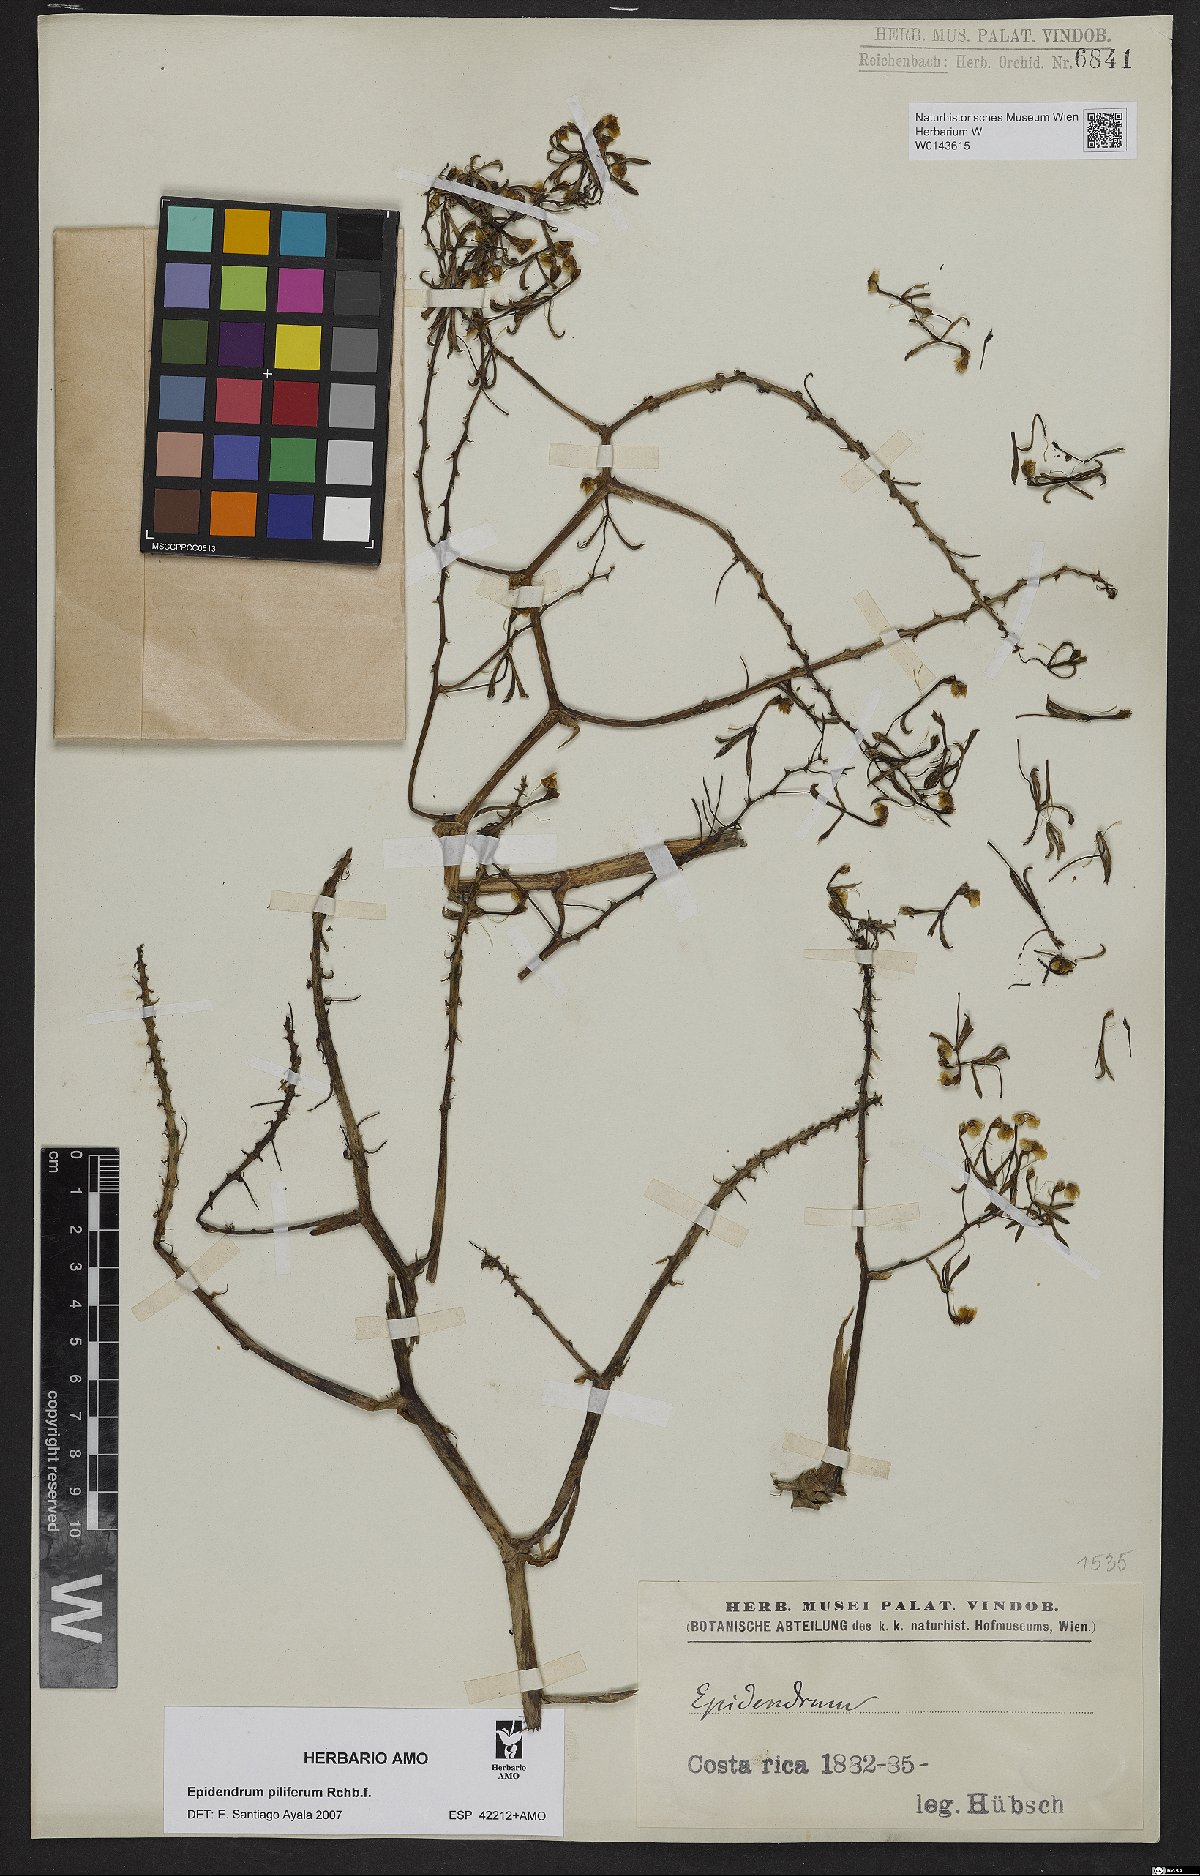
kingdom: Plantae
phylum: Tracheophyta
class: Liliopsida
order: Asparagales
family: Orchidaceae
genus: Epidendrum
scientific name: Epidendrum piliferum
